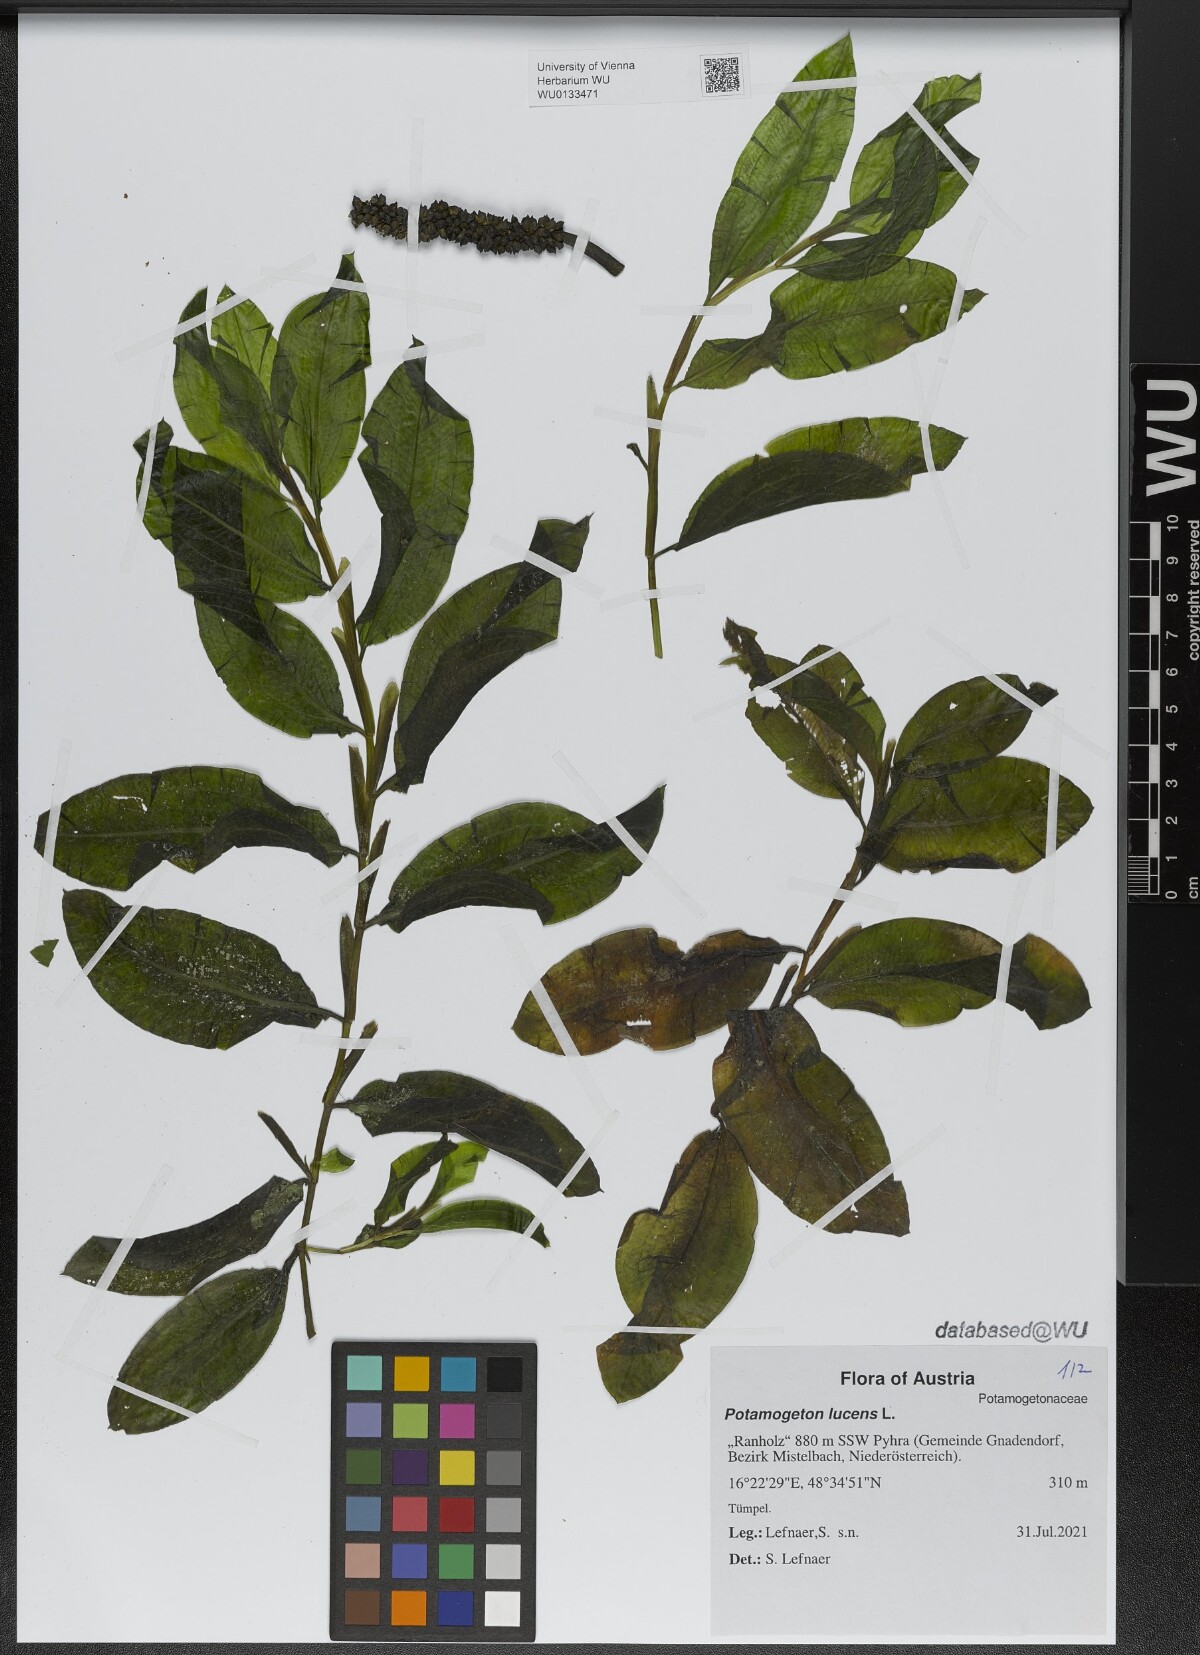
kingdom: Plantae
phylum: Tracheophyta
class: Liliopsida
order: Alismatales
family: Potamogetonaceae
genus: Potamogeton
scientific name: Potamogeton lucens
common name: Shining pondweed
